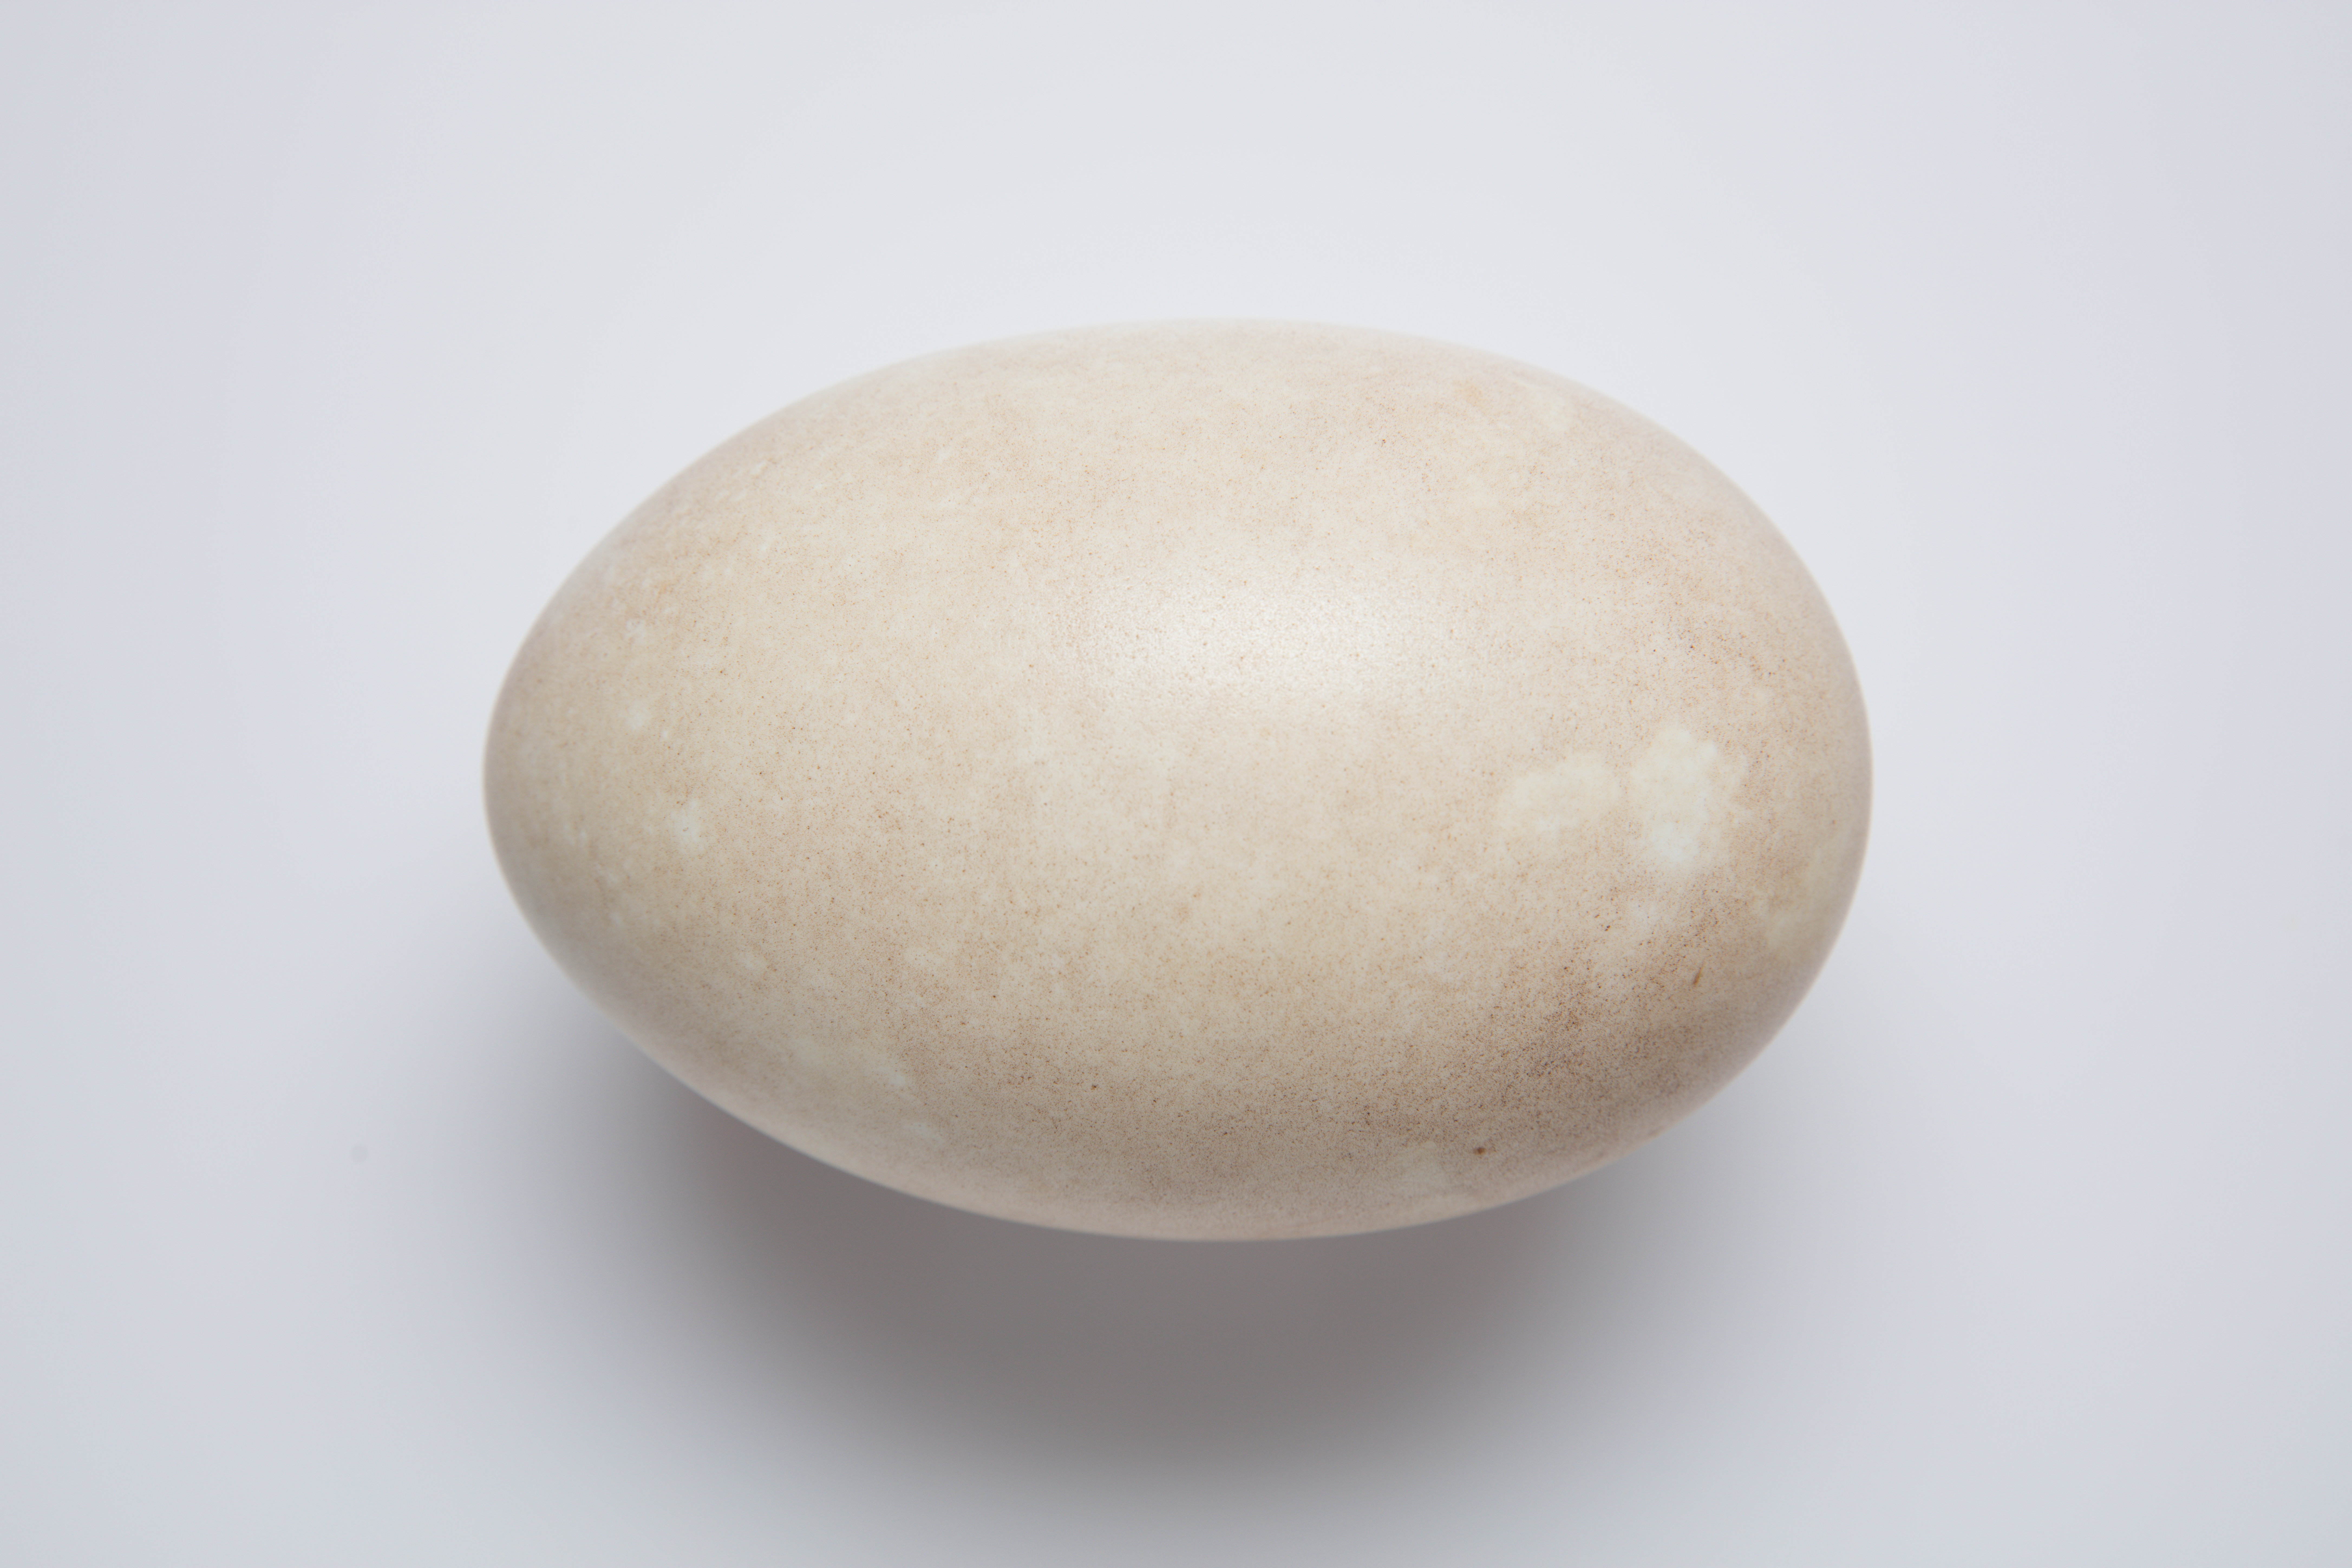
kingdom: Animalia
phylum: Chordata
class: Aves
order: Apterygiformes
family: Apterygidae
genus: Apteryx
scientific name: Apteryx mantelli
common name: North island brown kiwi
